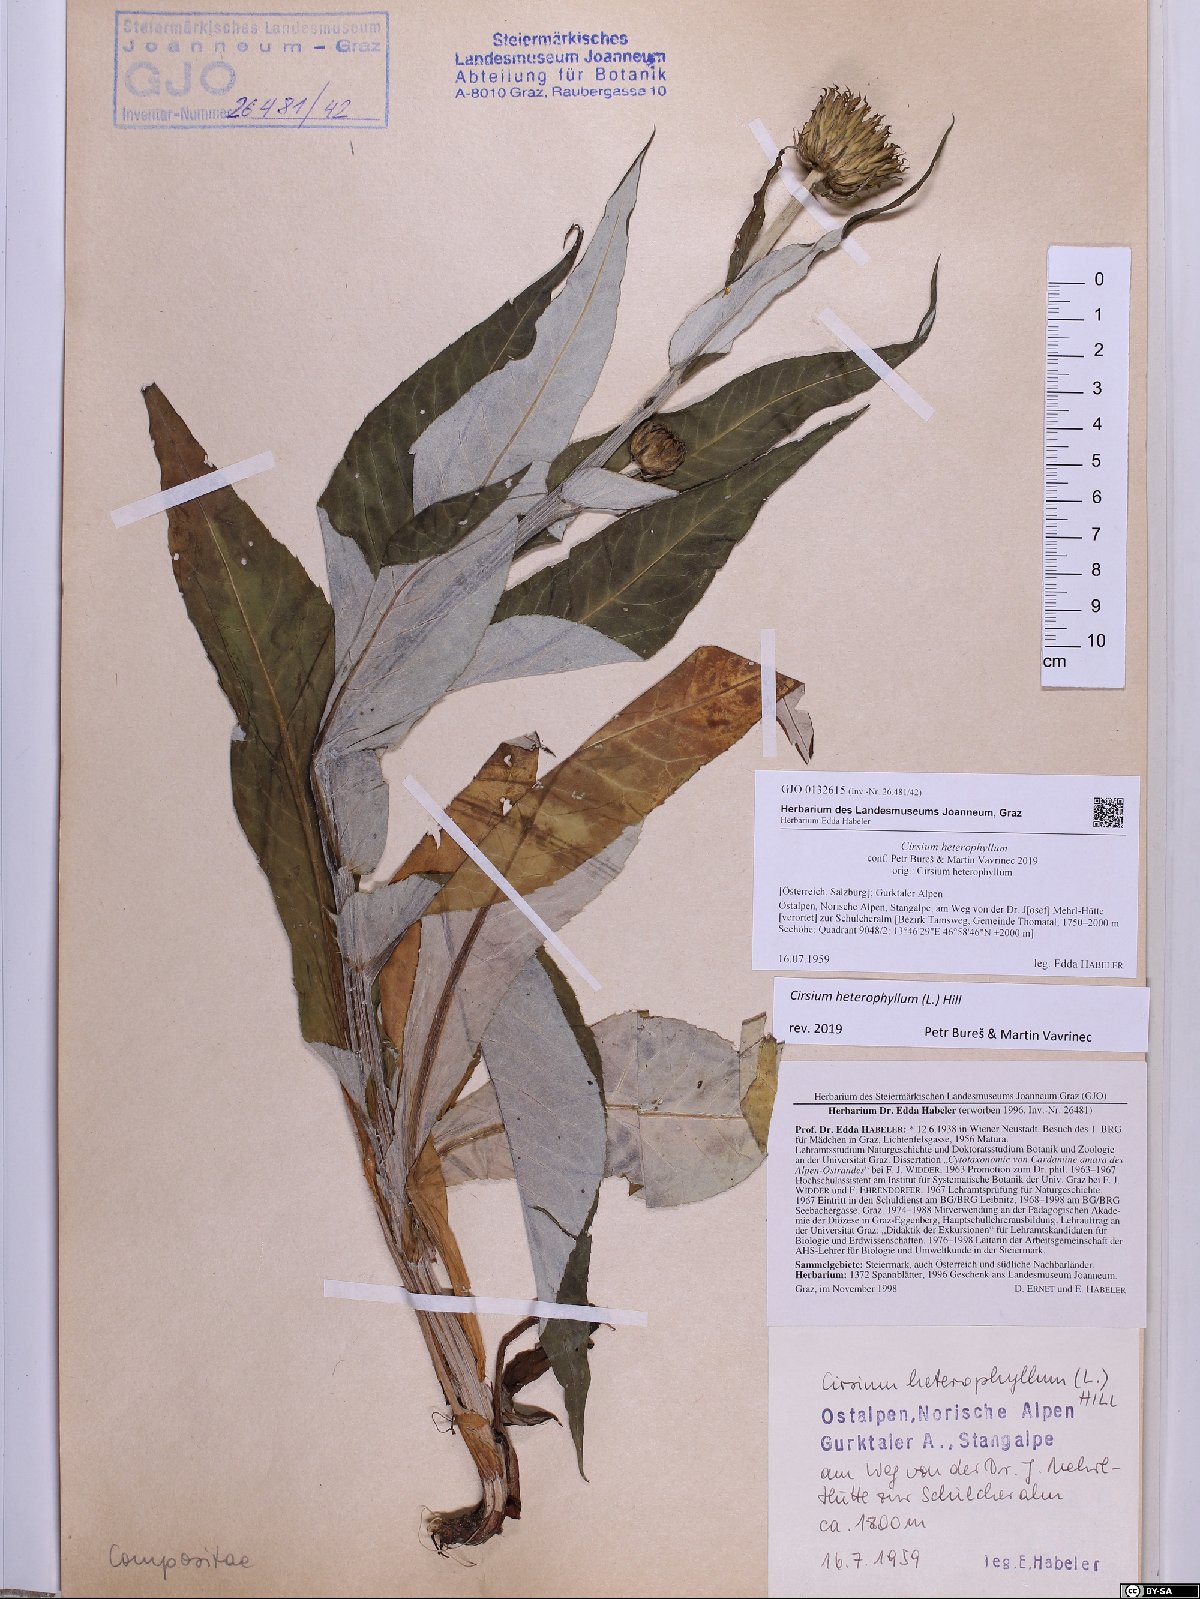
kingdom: Plantae
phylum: Tracheophyta
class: Magnoliopsida
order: Asterales
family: Asteraceae
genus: Cirsium
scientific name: Cirsium heterophyllum
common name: Melancholy thistle
